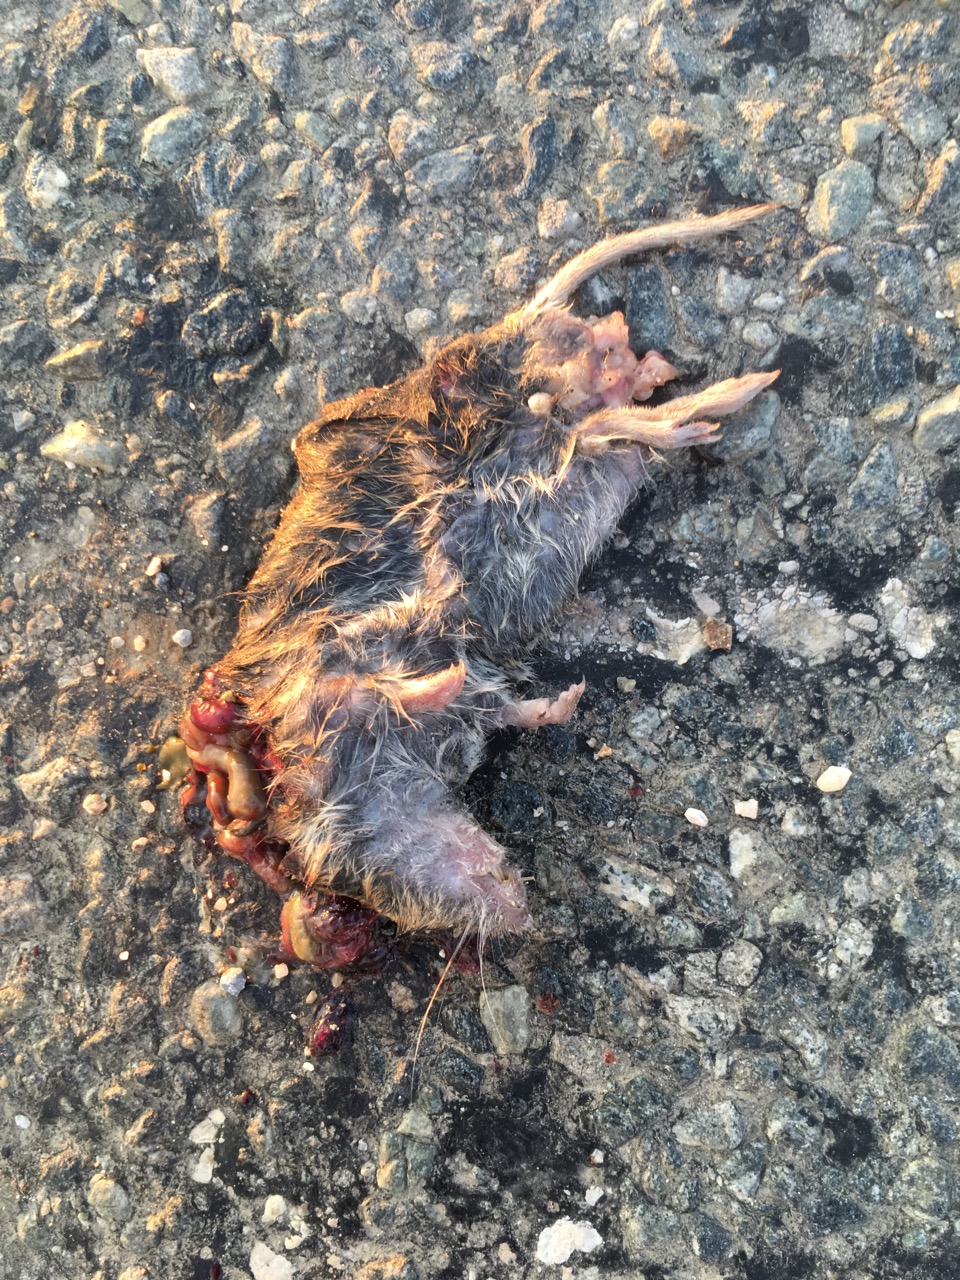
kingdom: Animalia
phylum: Chordata
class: Mammalia
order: Rodentia
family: Cricetidae
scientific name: Cricetidae
